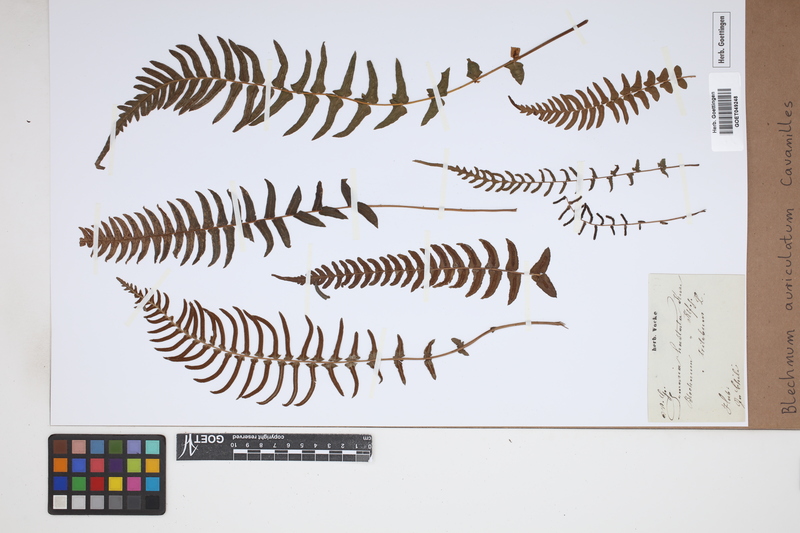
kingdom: Plantae
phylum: Tracheophyta
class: Polypodiopsida
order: Polypodiales
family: Blechnaceae
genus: Blechnum
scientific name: Blechnum auriculatum
